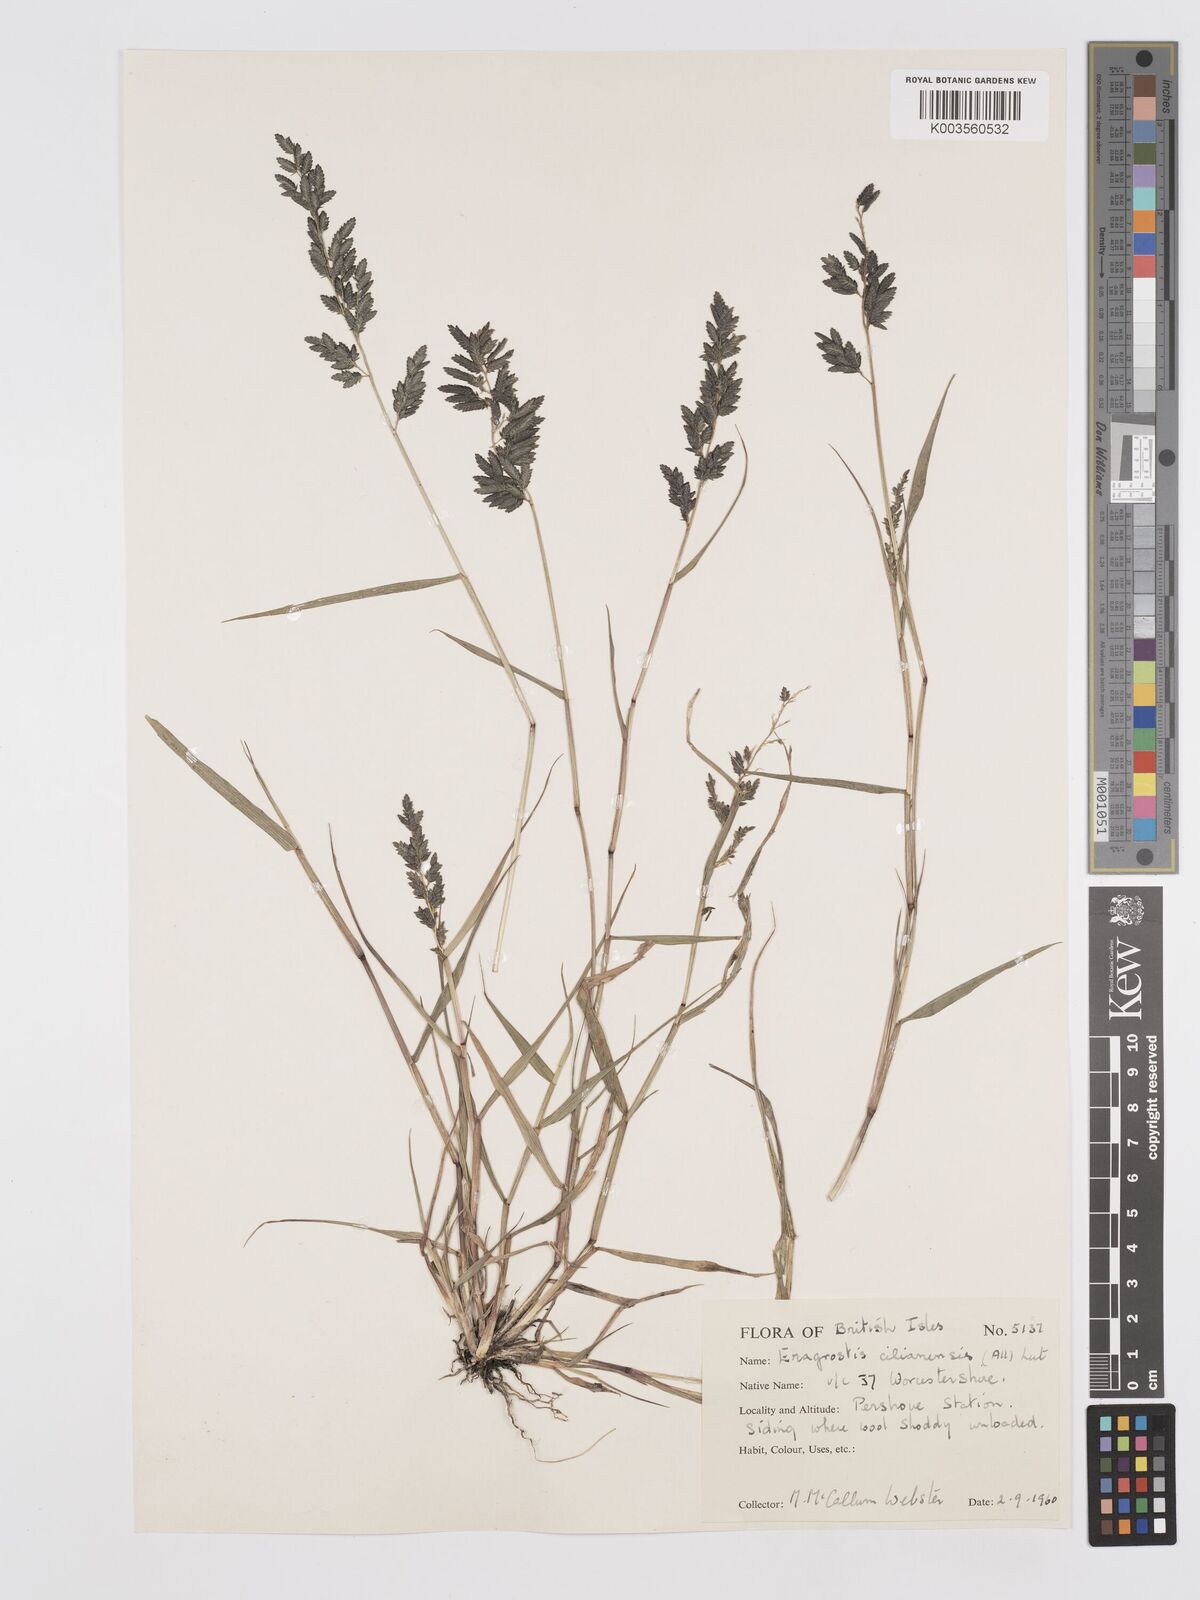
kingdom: Plantae
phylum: Tracheophyta
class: Liliopsida
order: Poales
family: Poaceae
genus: Eragrostis
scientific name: Eragrostis cilianensis
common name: Stinkgrass
